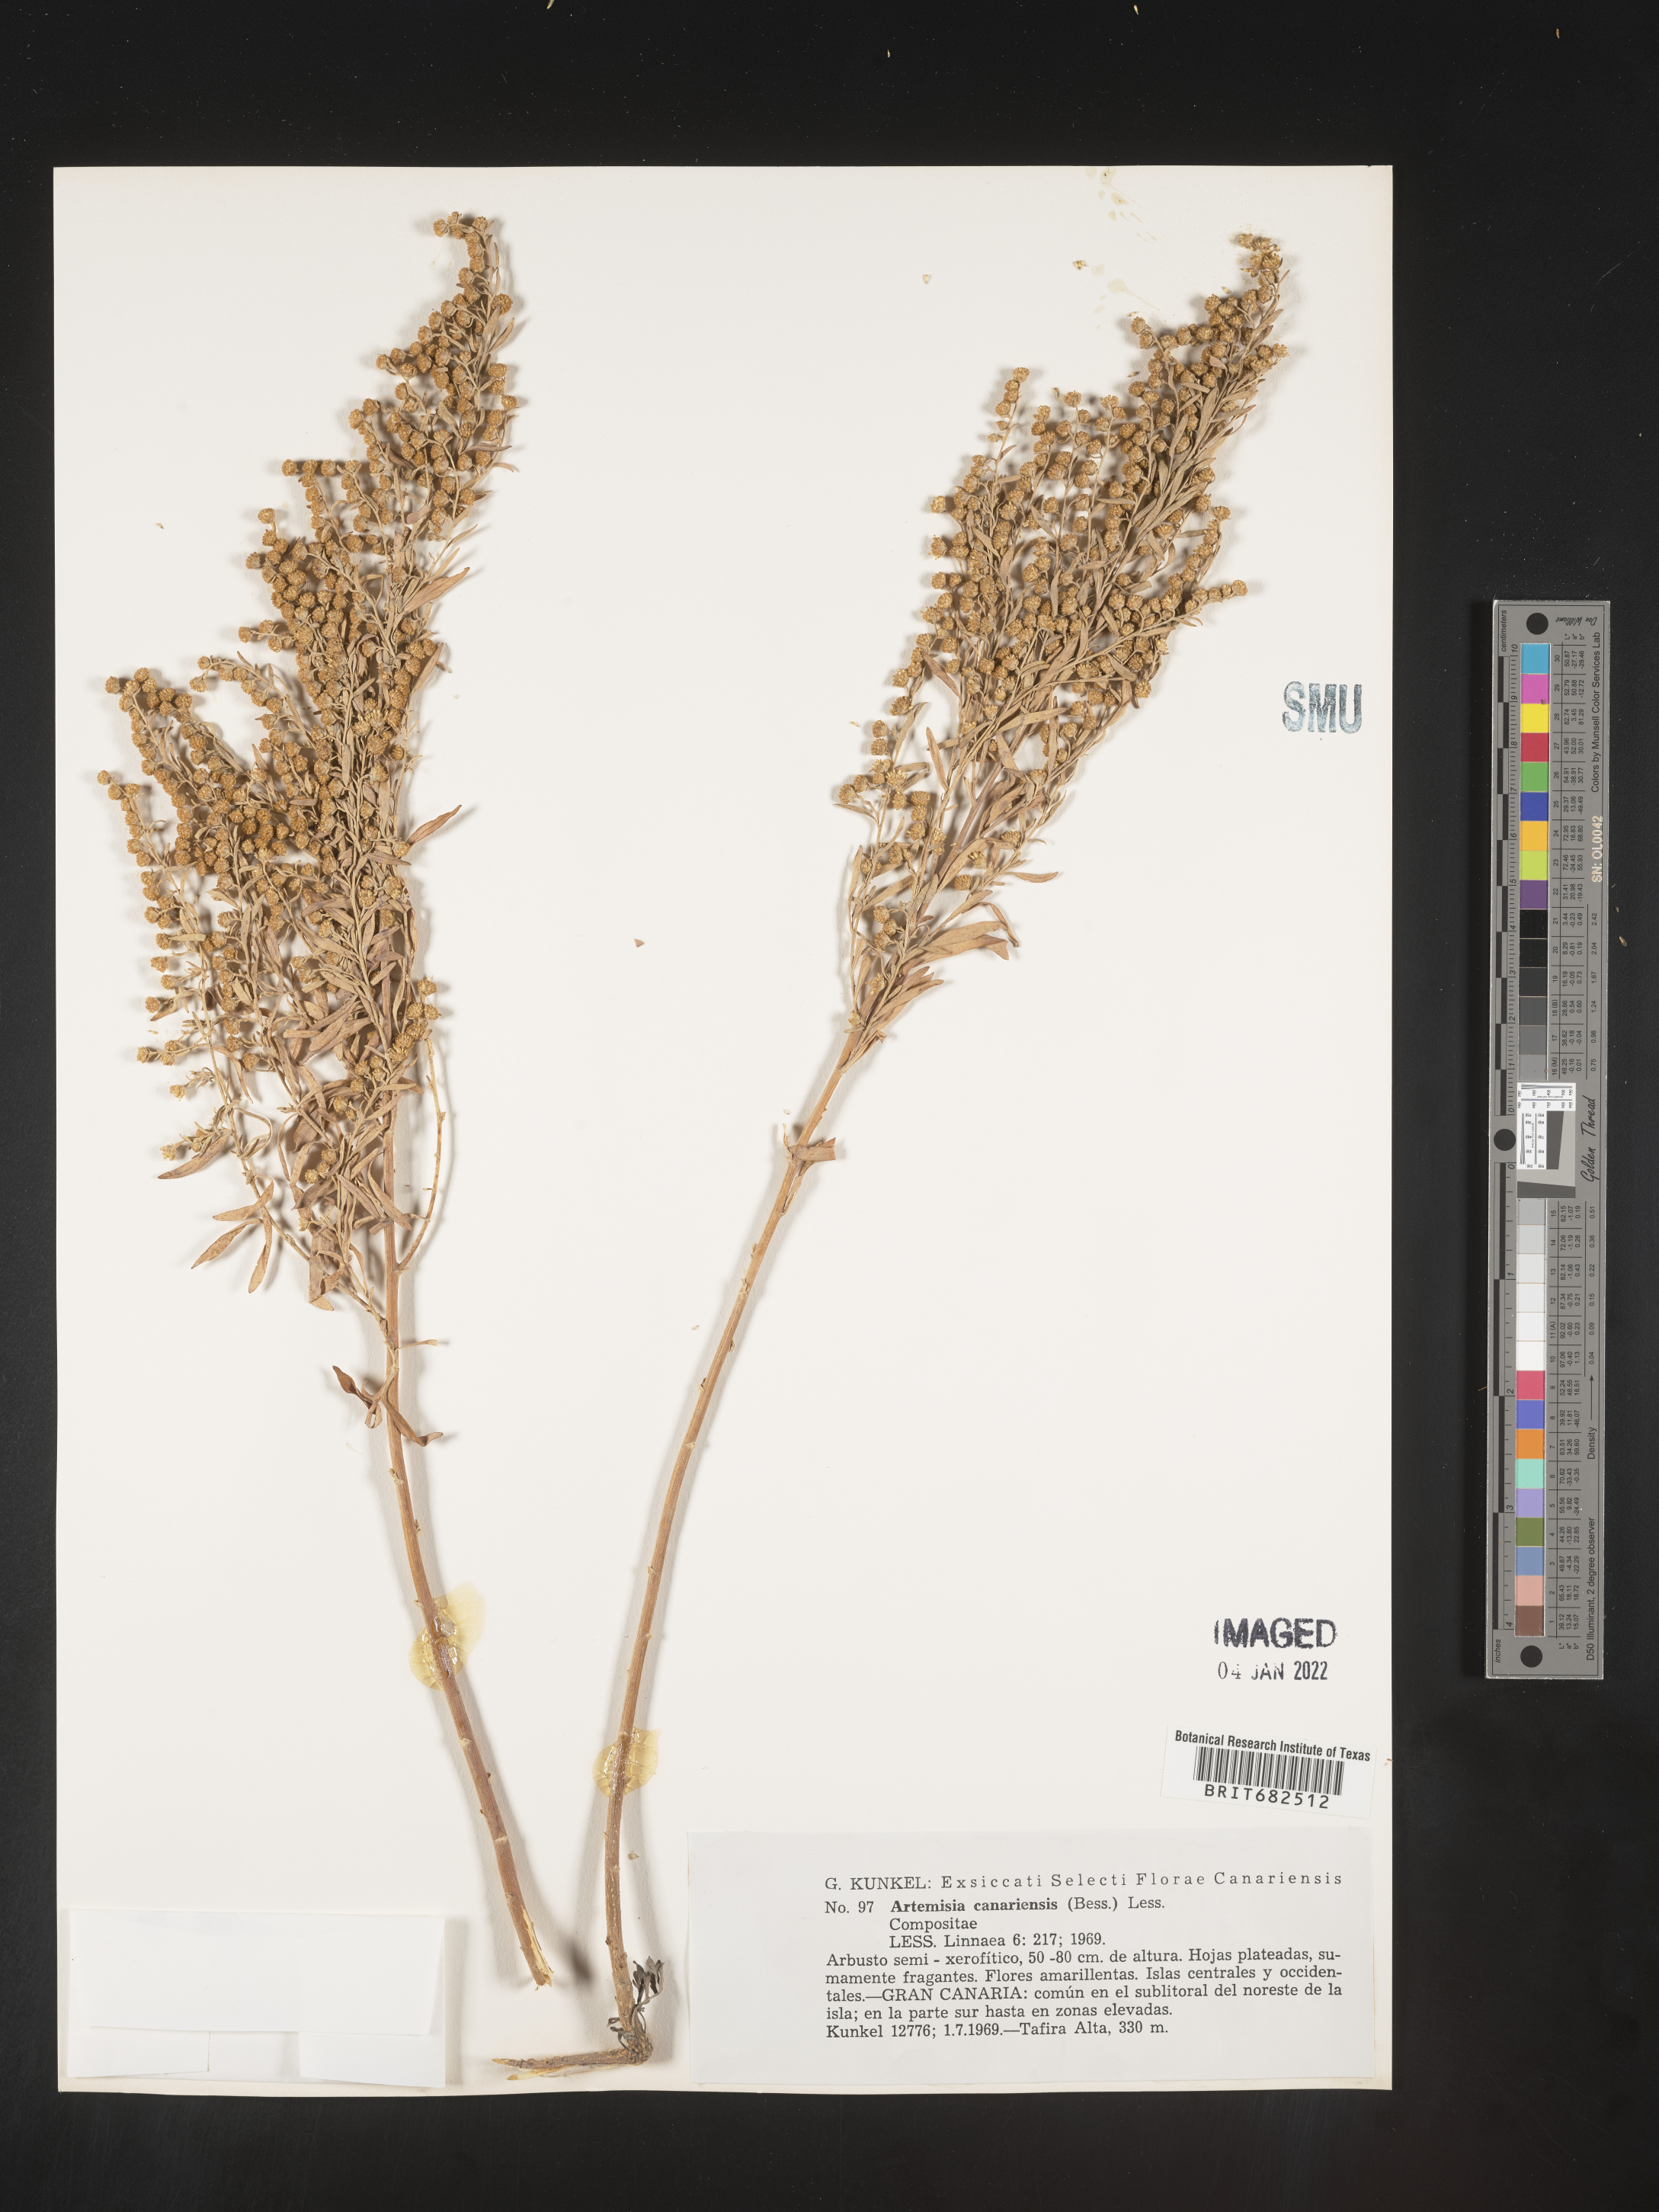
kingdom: Plantae
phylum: Tracheophyta
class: Magnoliopsida
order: Asterales
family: Asteraceae
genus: Artemisia
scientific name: Artemisia
